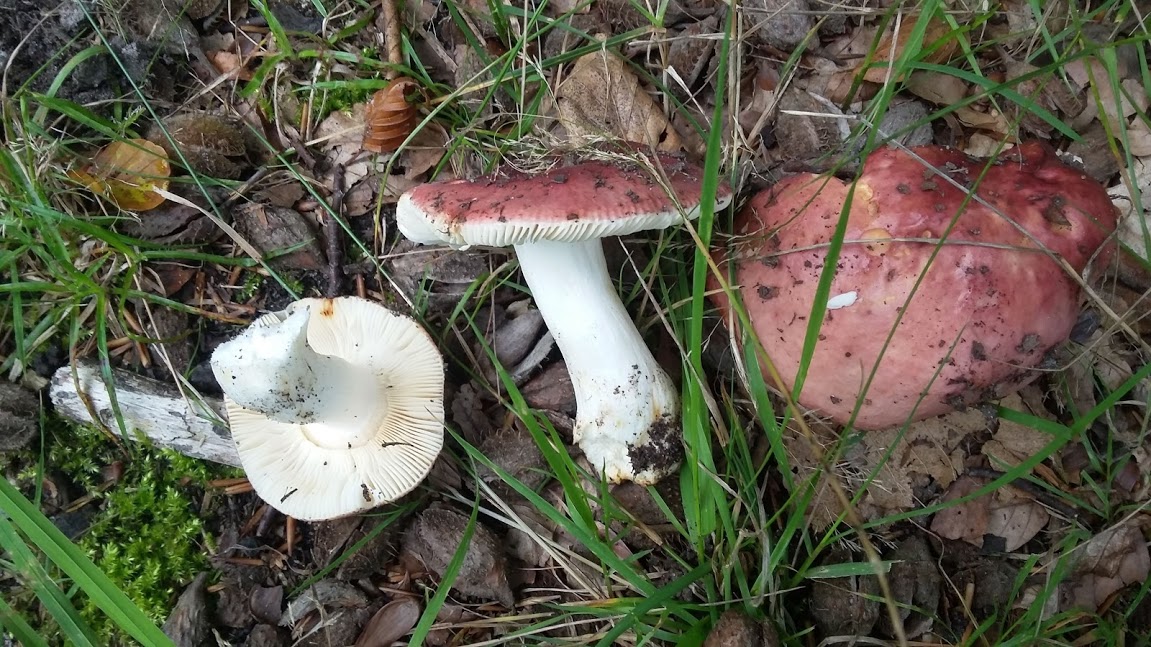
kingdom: Fungi
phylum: Basidiomycota
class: Agaricomycetes
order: Russulales
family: Russulaceae
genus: Russula
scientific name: Russula
